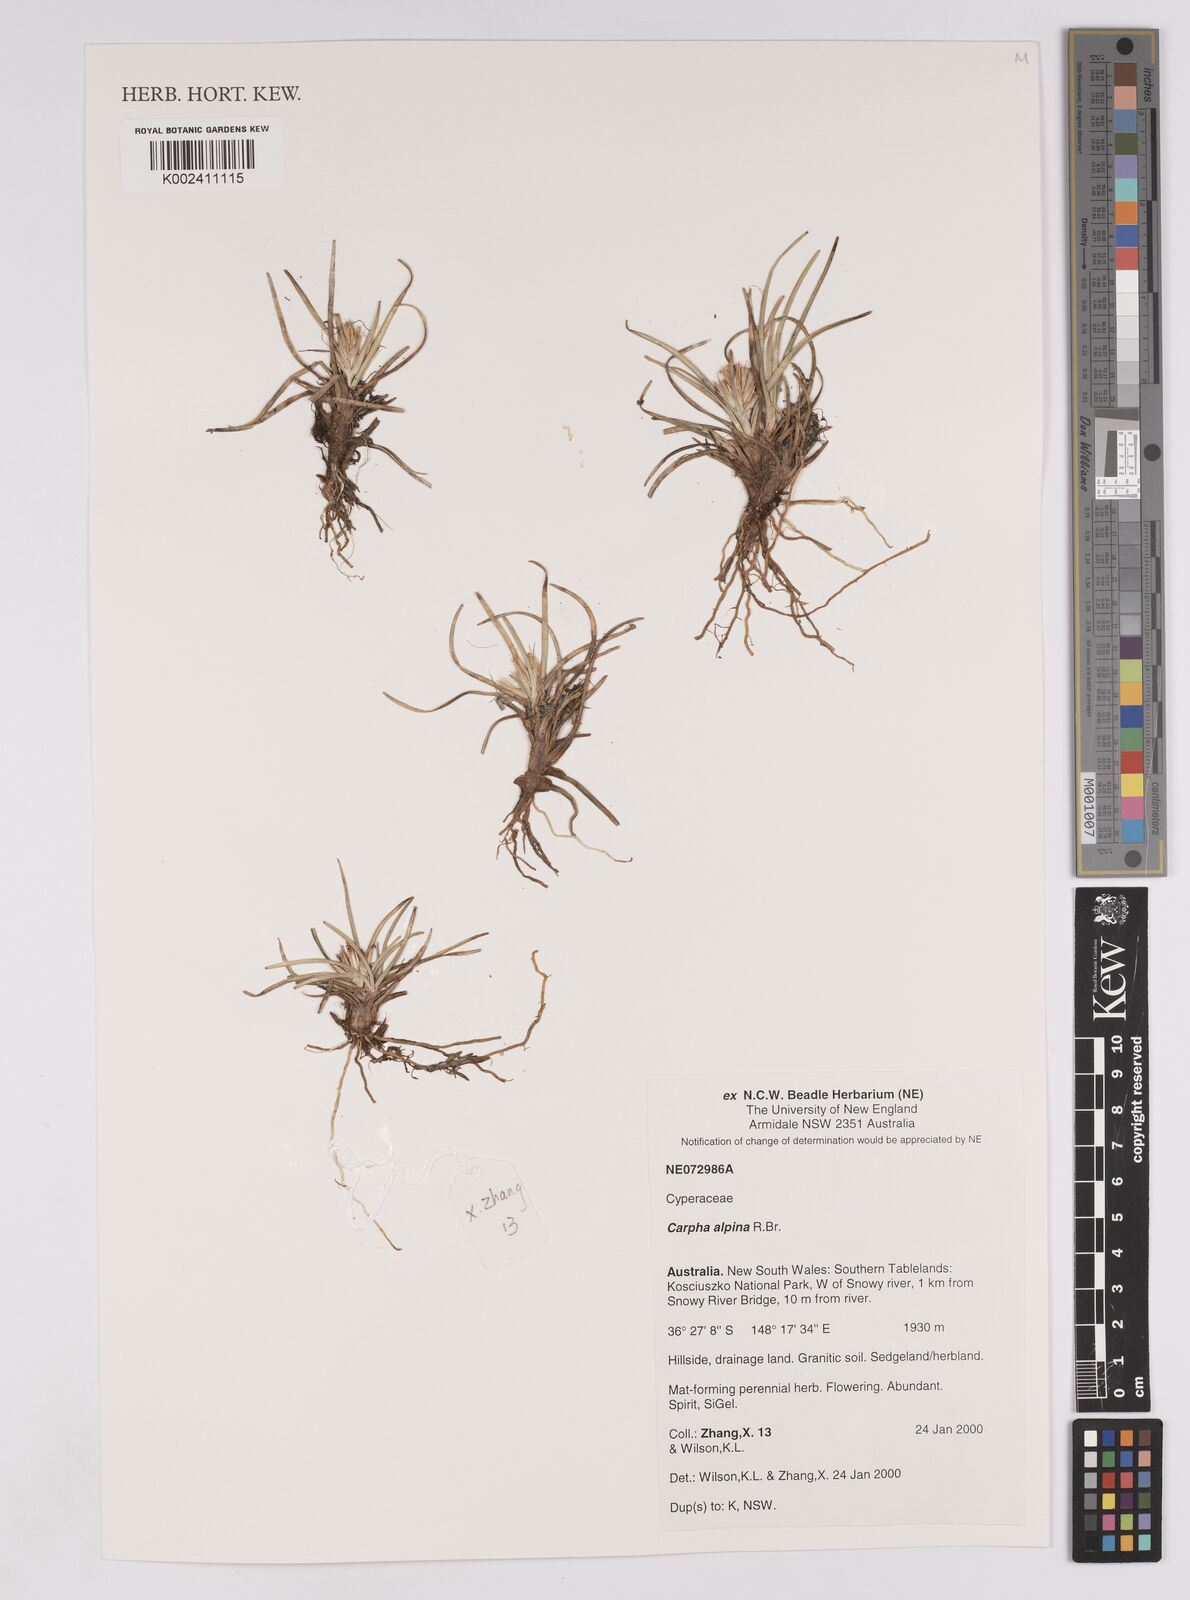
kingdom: Plantae
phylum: Tracheophyta
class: Liliopsida
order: Poales
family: Cyperaceae
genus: Carpha
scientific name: Carpha alpina
